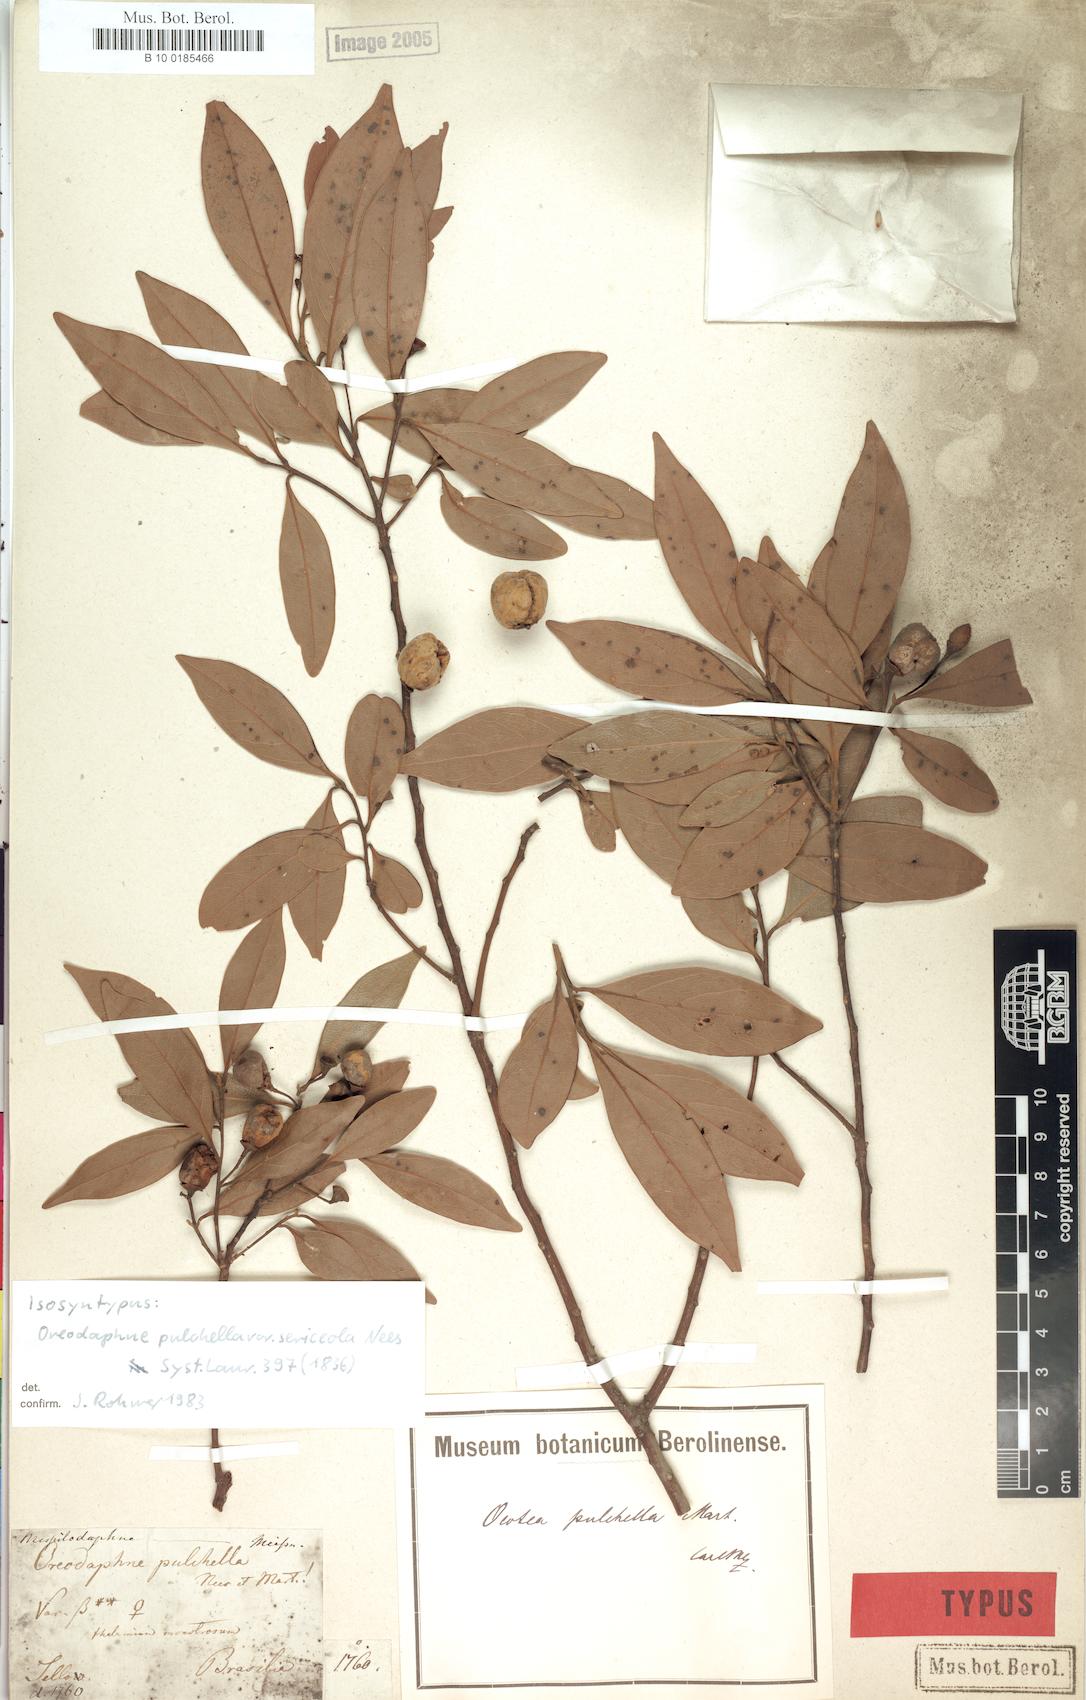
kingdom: Plantae
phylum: Tracheophyta
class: Magnoliopsida
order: Laurales
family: Lauraceae
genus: Mespilodaphne
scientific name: Mespilodaphne pulchella
